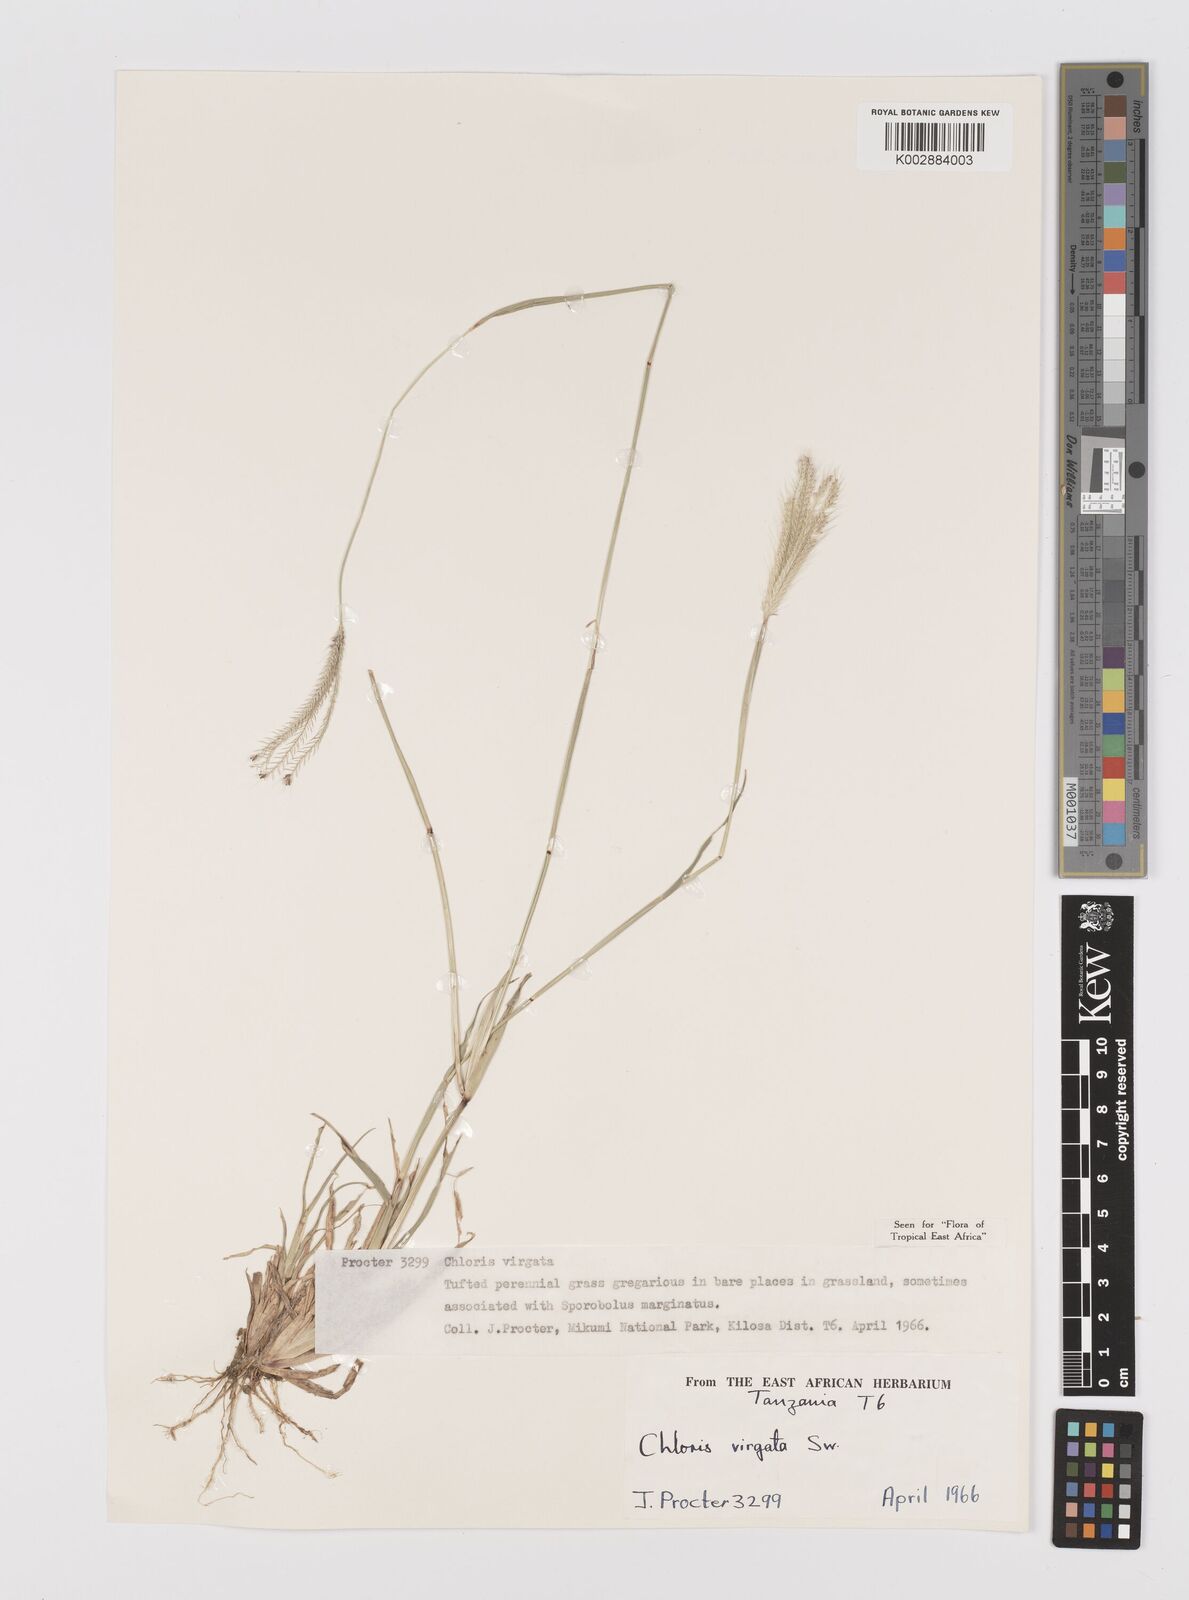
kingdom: Plantae
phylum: Tracheophyta
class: Liliopsida
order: Poales
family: Poaceae
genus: Chloris
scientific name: Chloris virgata
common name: Feathery rhodes-grass
